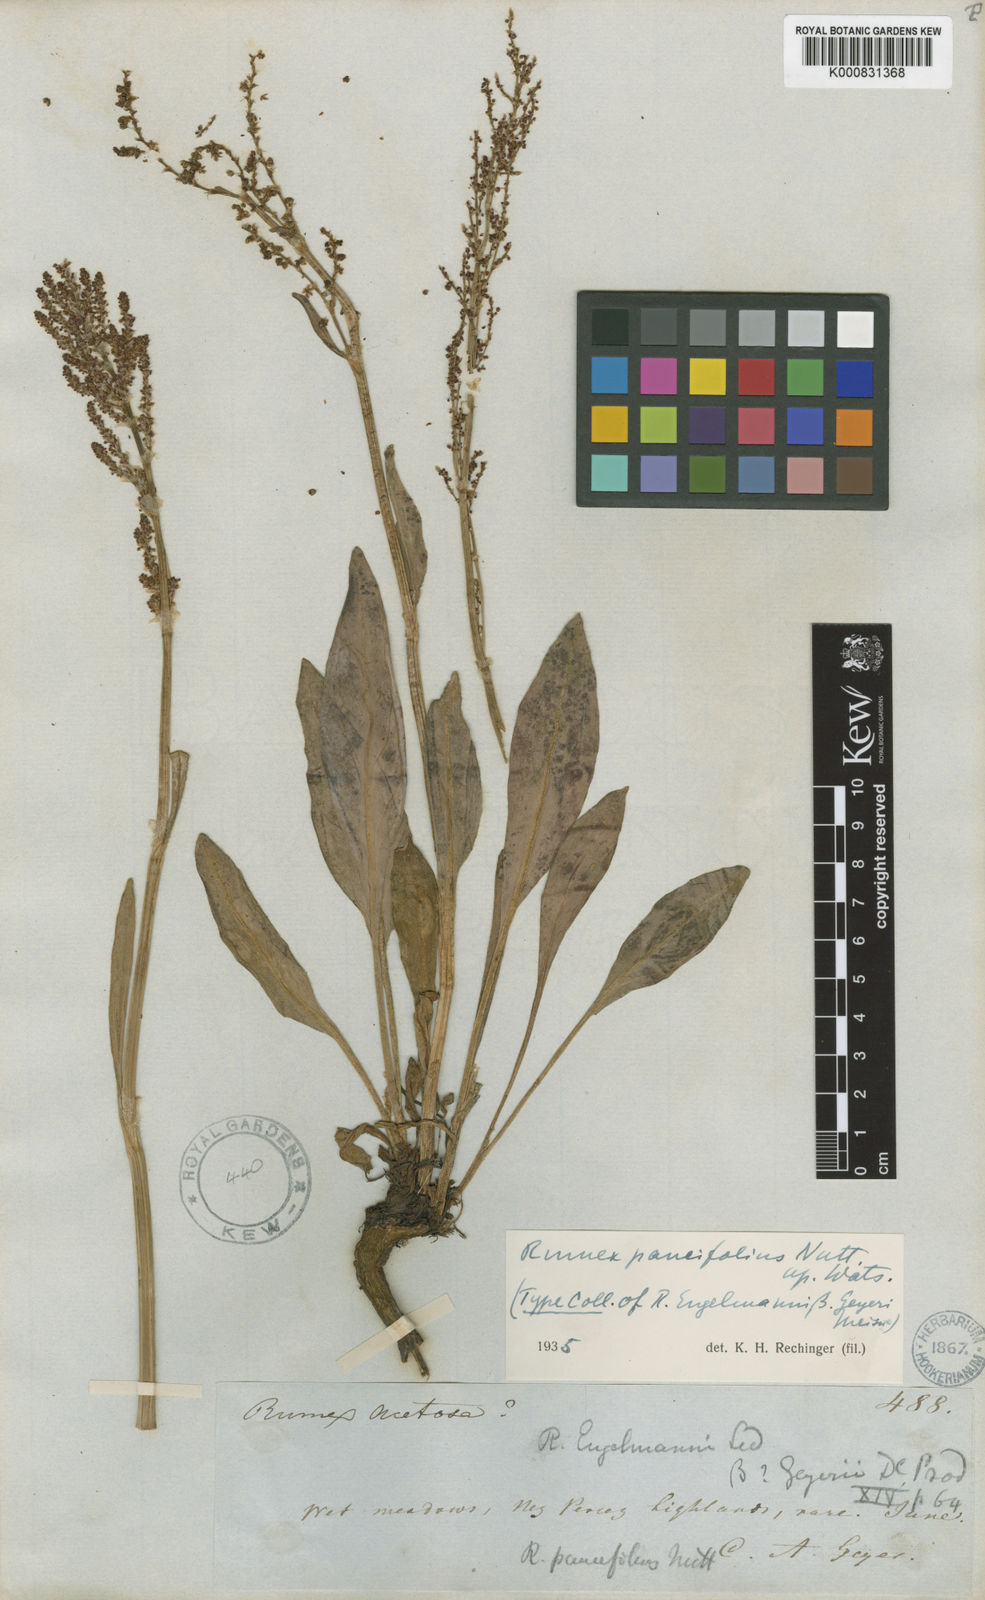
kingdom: Plantae
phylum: Tracheophyta
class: Magnoliopsida
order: Caryophyllales
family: Polygonaceae
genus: Rumex
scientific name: Rumex paucifolius
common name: Alpine sheep sorrel
